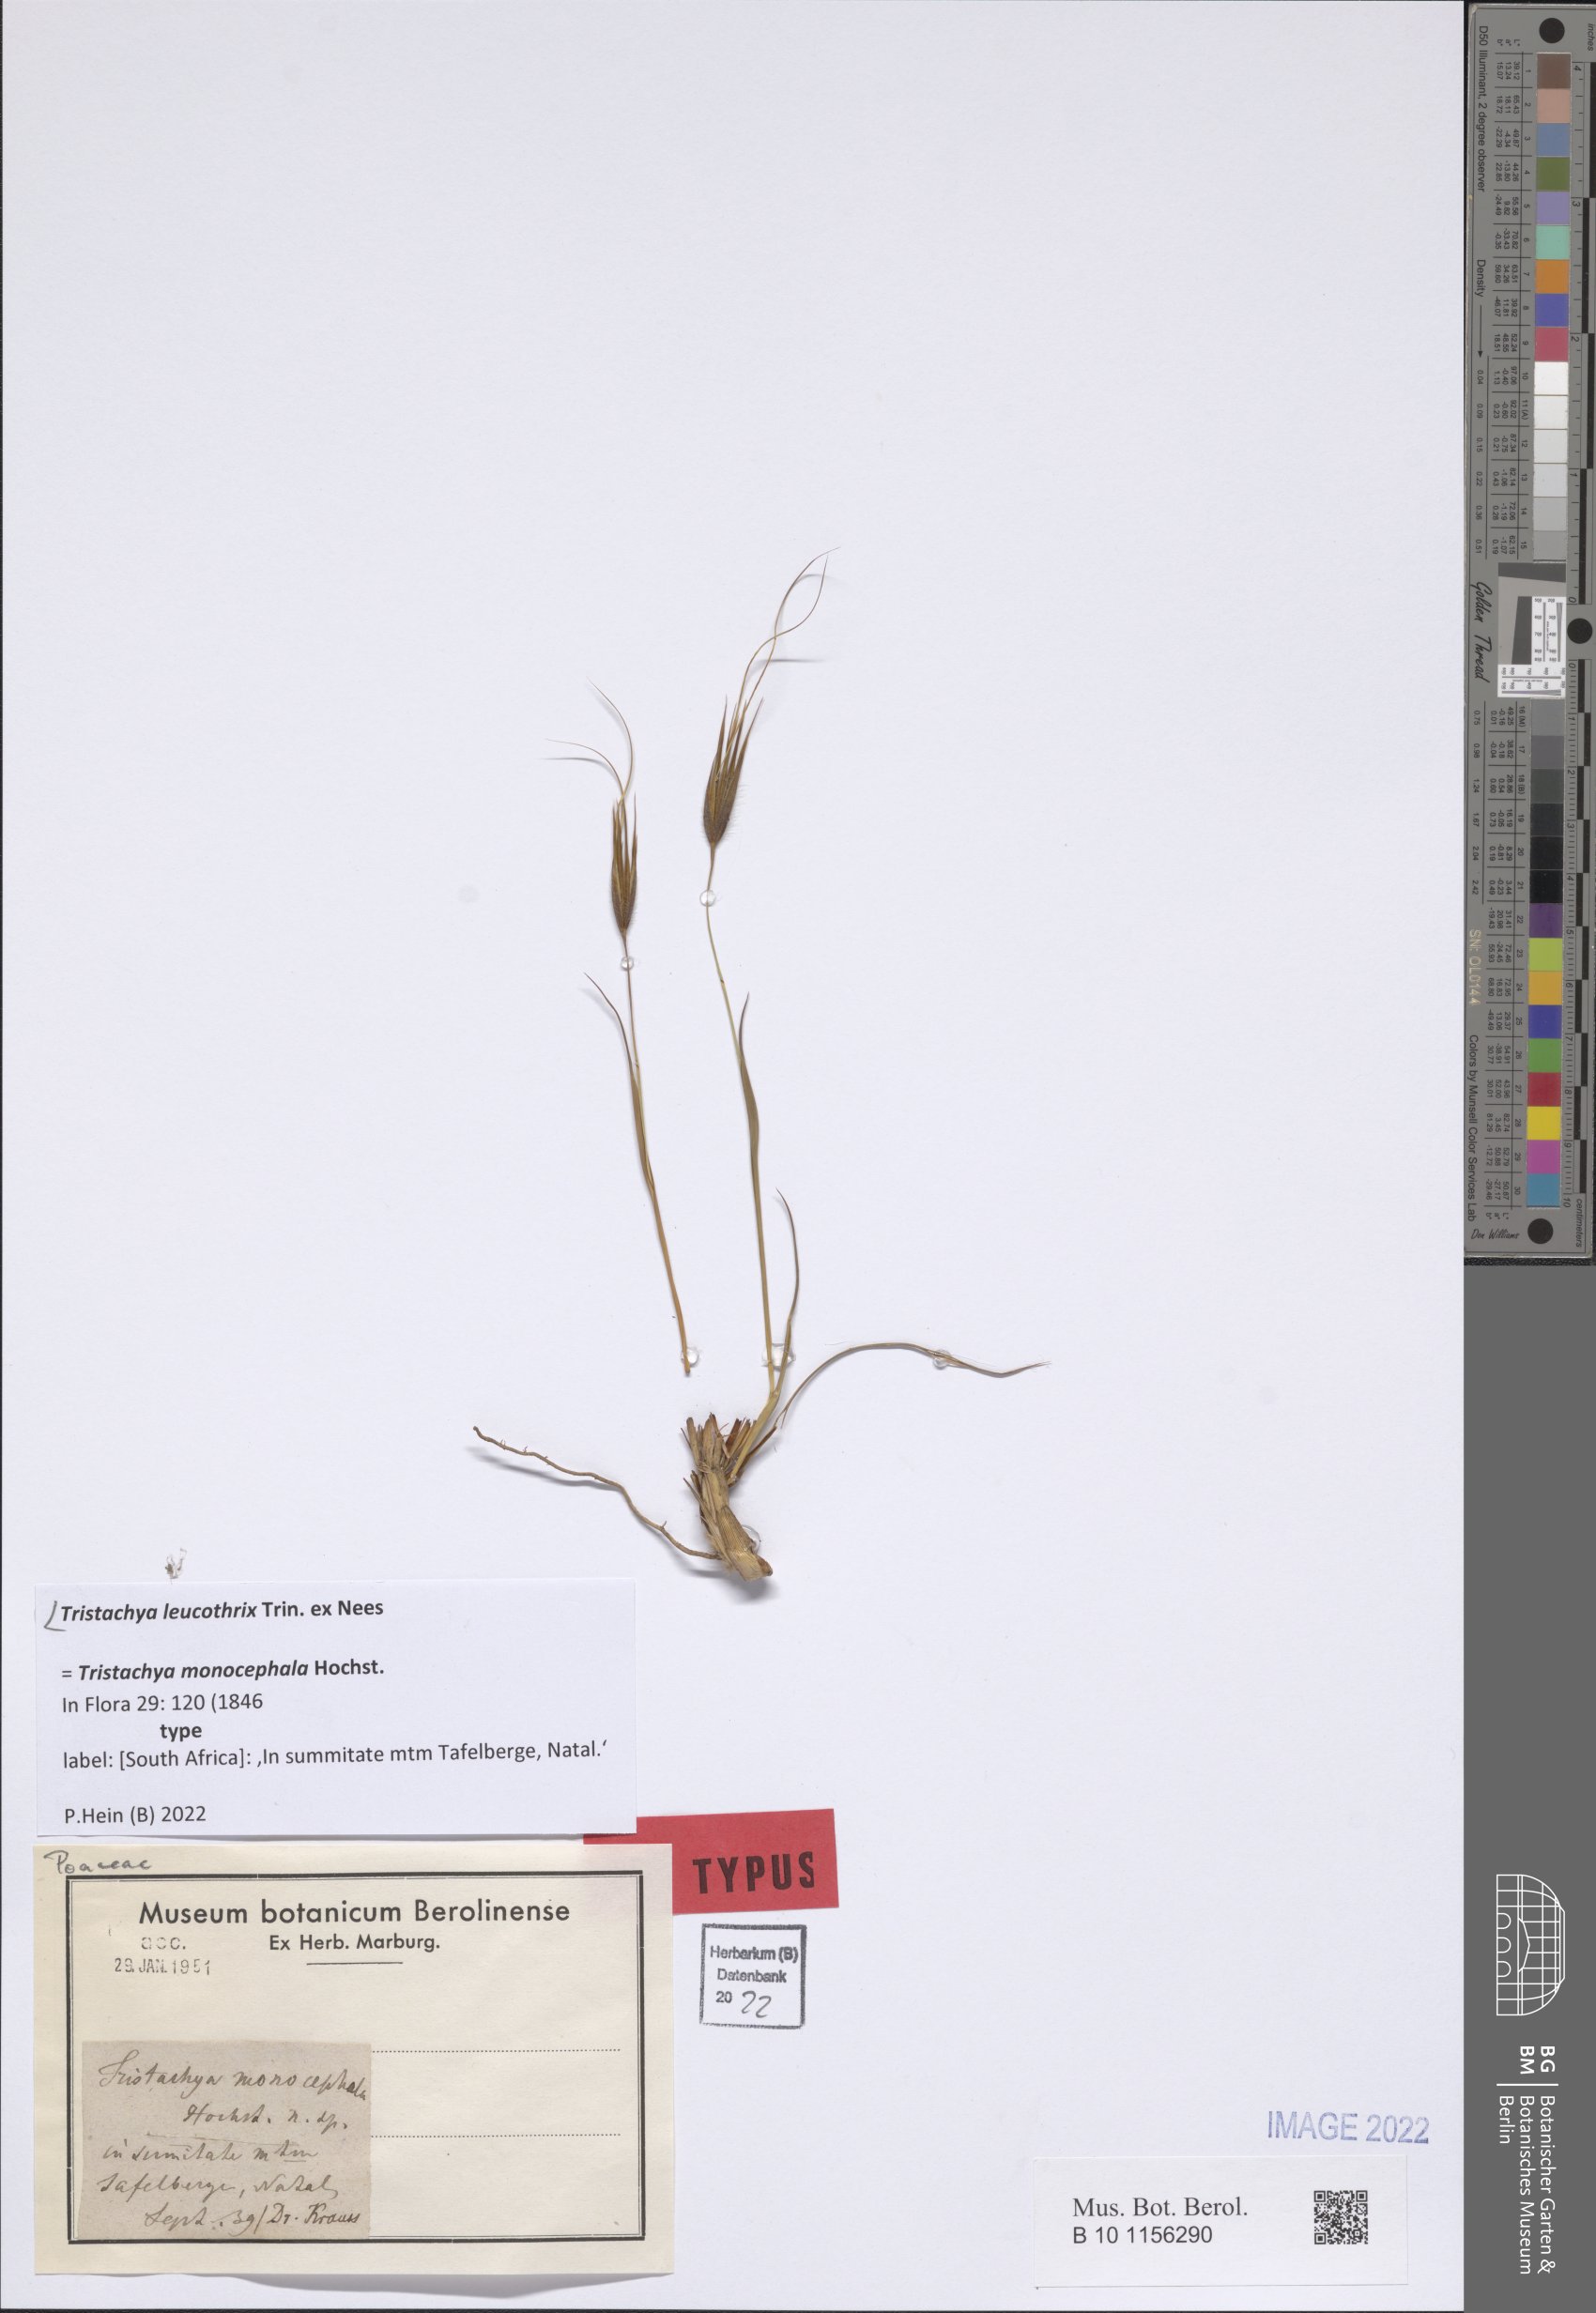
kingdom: Plantae
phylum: Tracheophyta
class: Liliopsida
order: Poales
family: Poaceae
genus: Tristachya
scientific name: Tristachya leucothrix
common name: Trident grass
